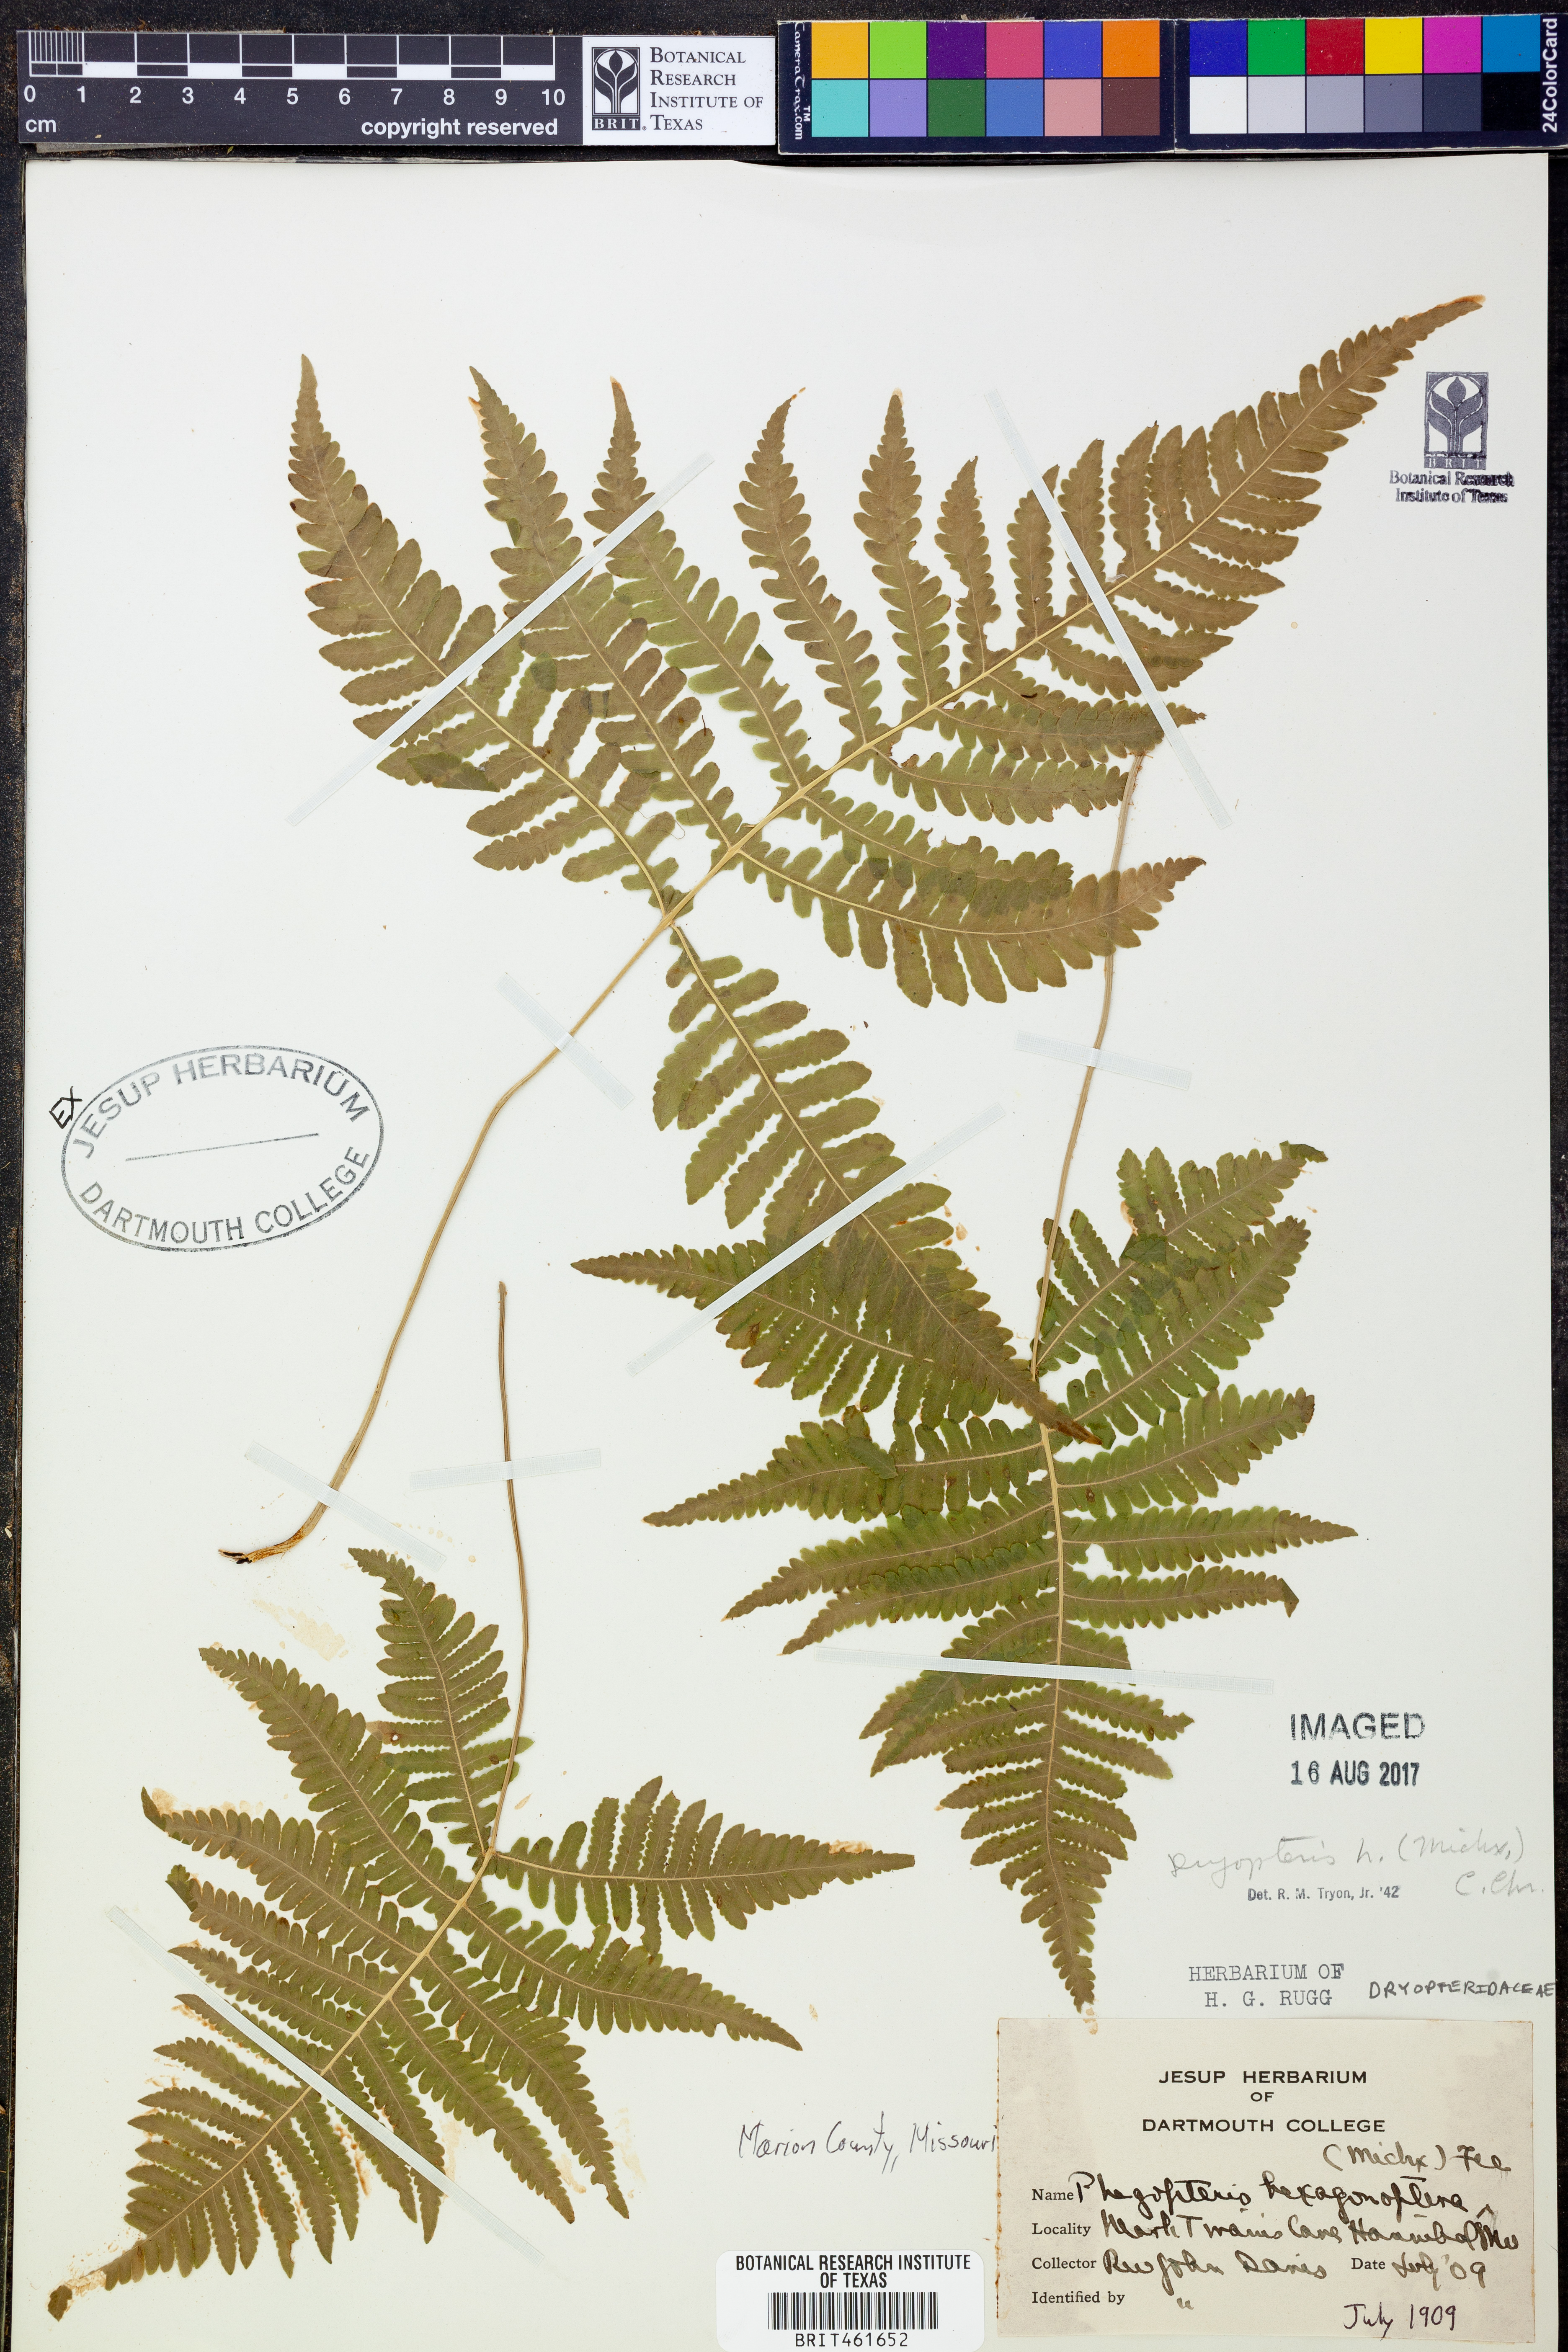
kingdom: Plantae
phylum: Tracheophyta
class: Polypodiopsida
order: Polypodiales
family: Dryopteridaceae
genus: Dryopteris
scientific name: Dryopteris hexagonaptera
